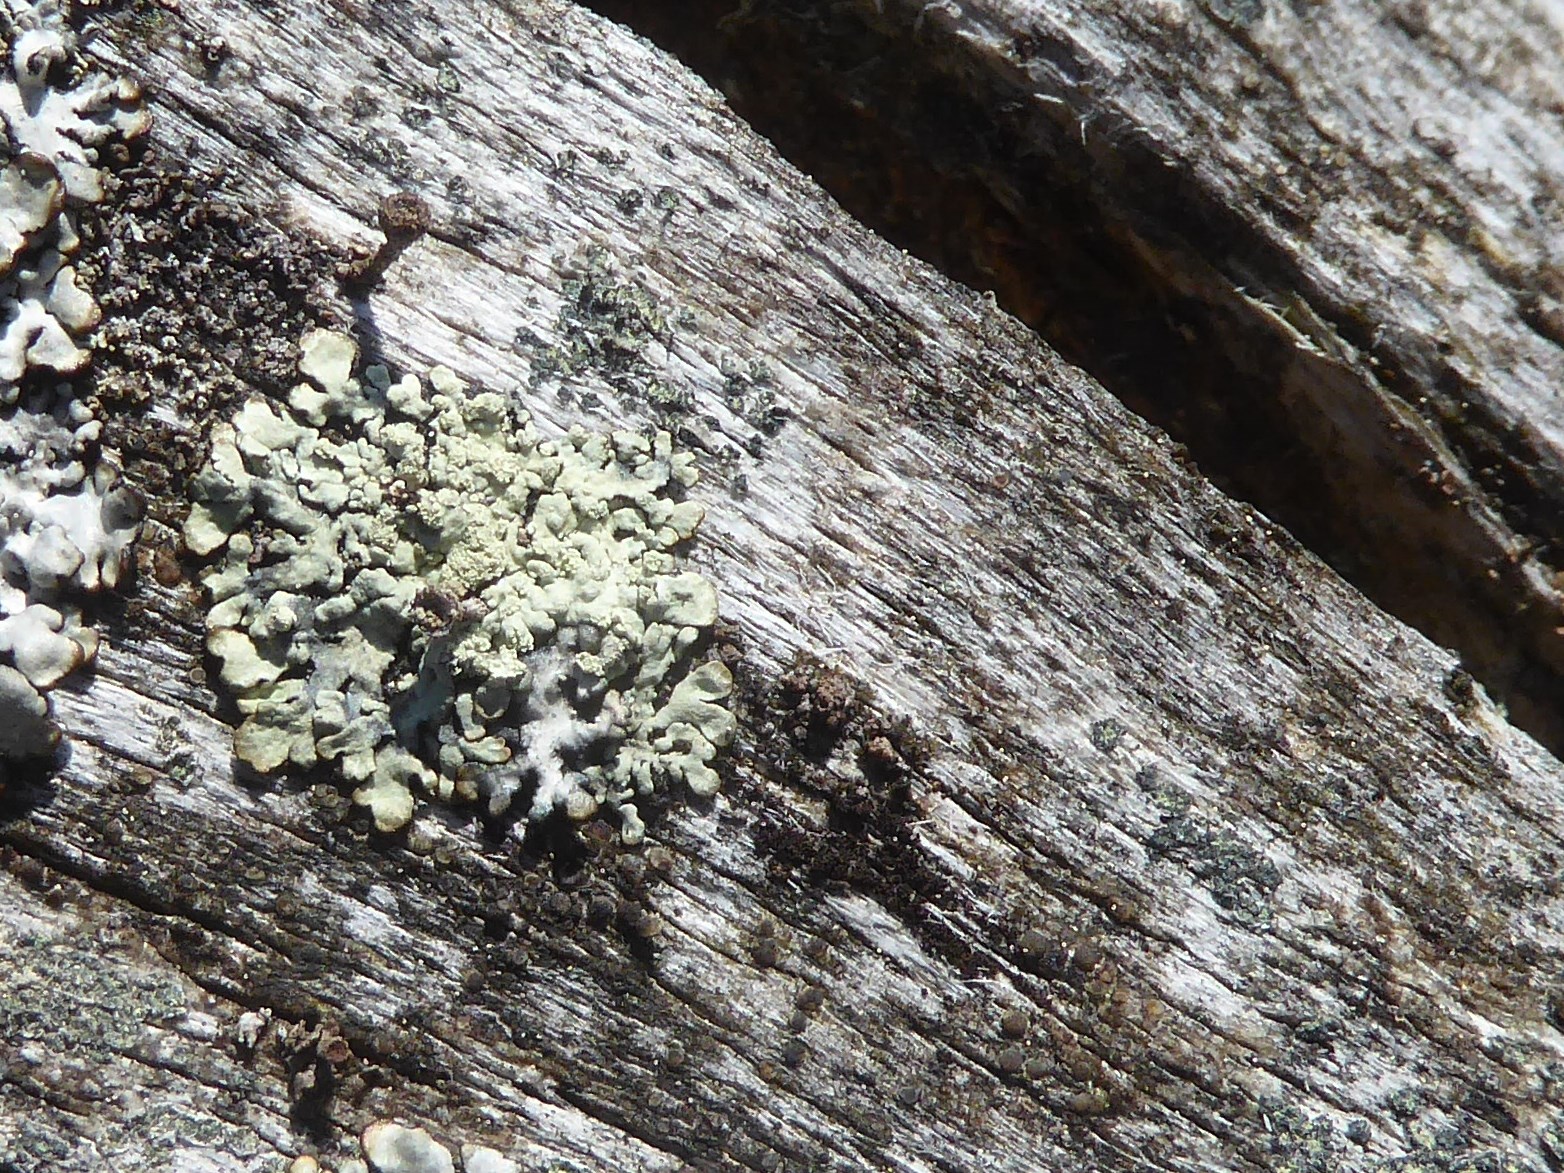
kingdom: Fungi
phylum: Ascomycota
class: Lecanoromycetes
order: Lecanorales
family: Parmeliaceae
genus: Parmeliopsis
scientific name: Parmeliopsis ambigua
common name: gul stolpelav
